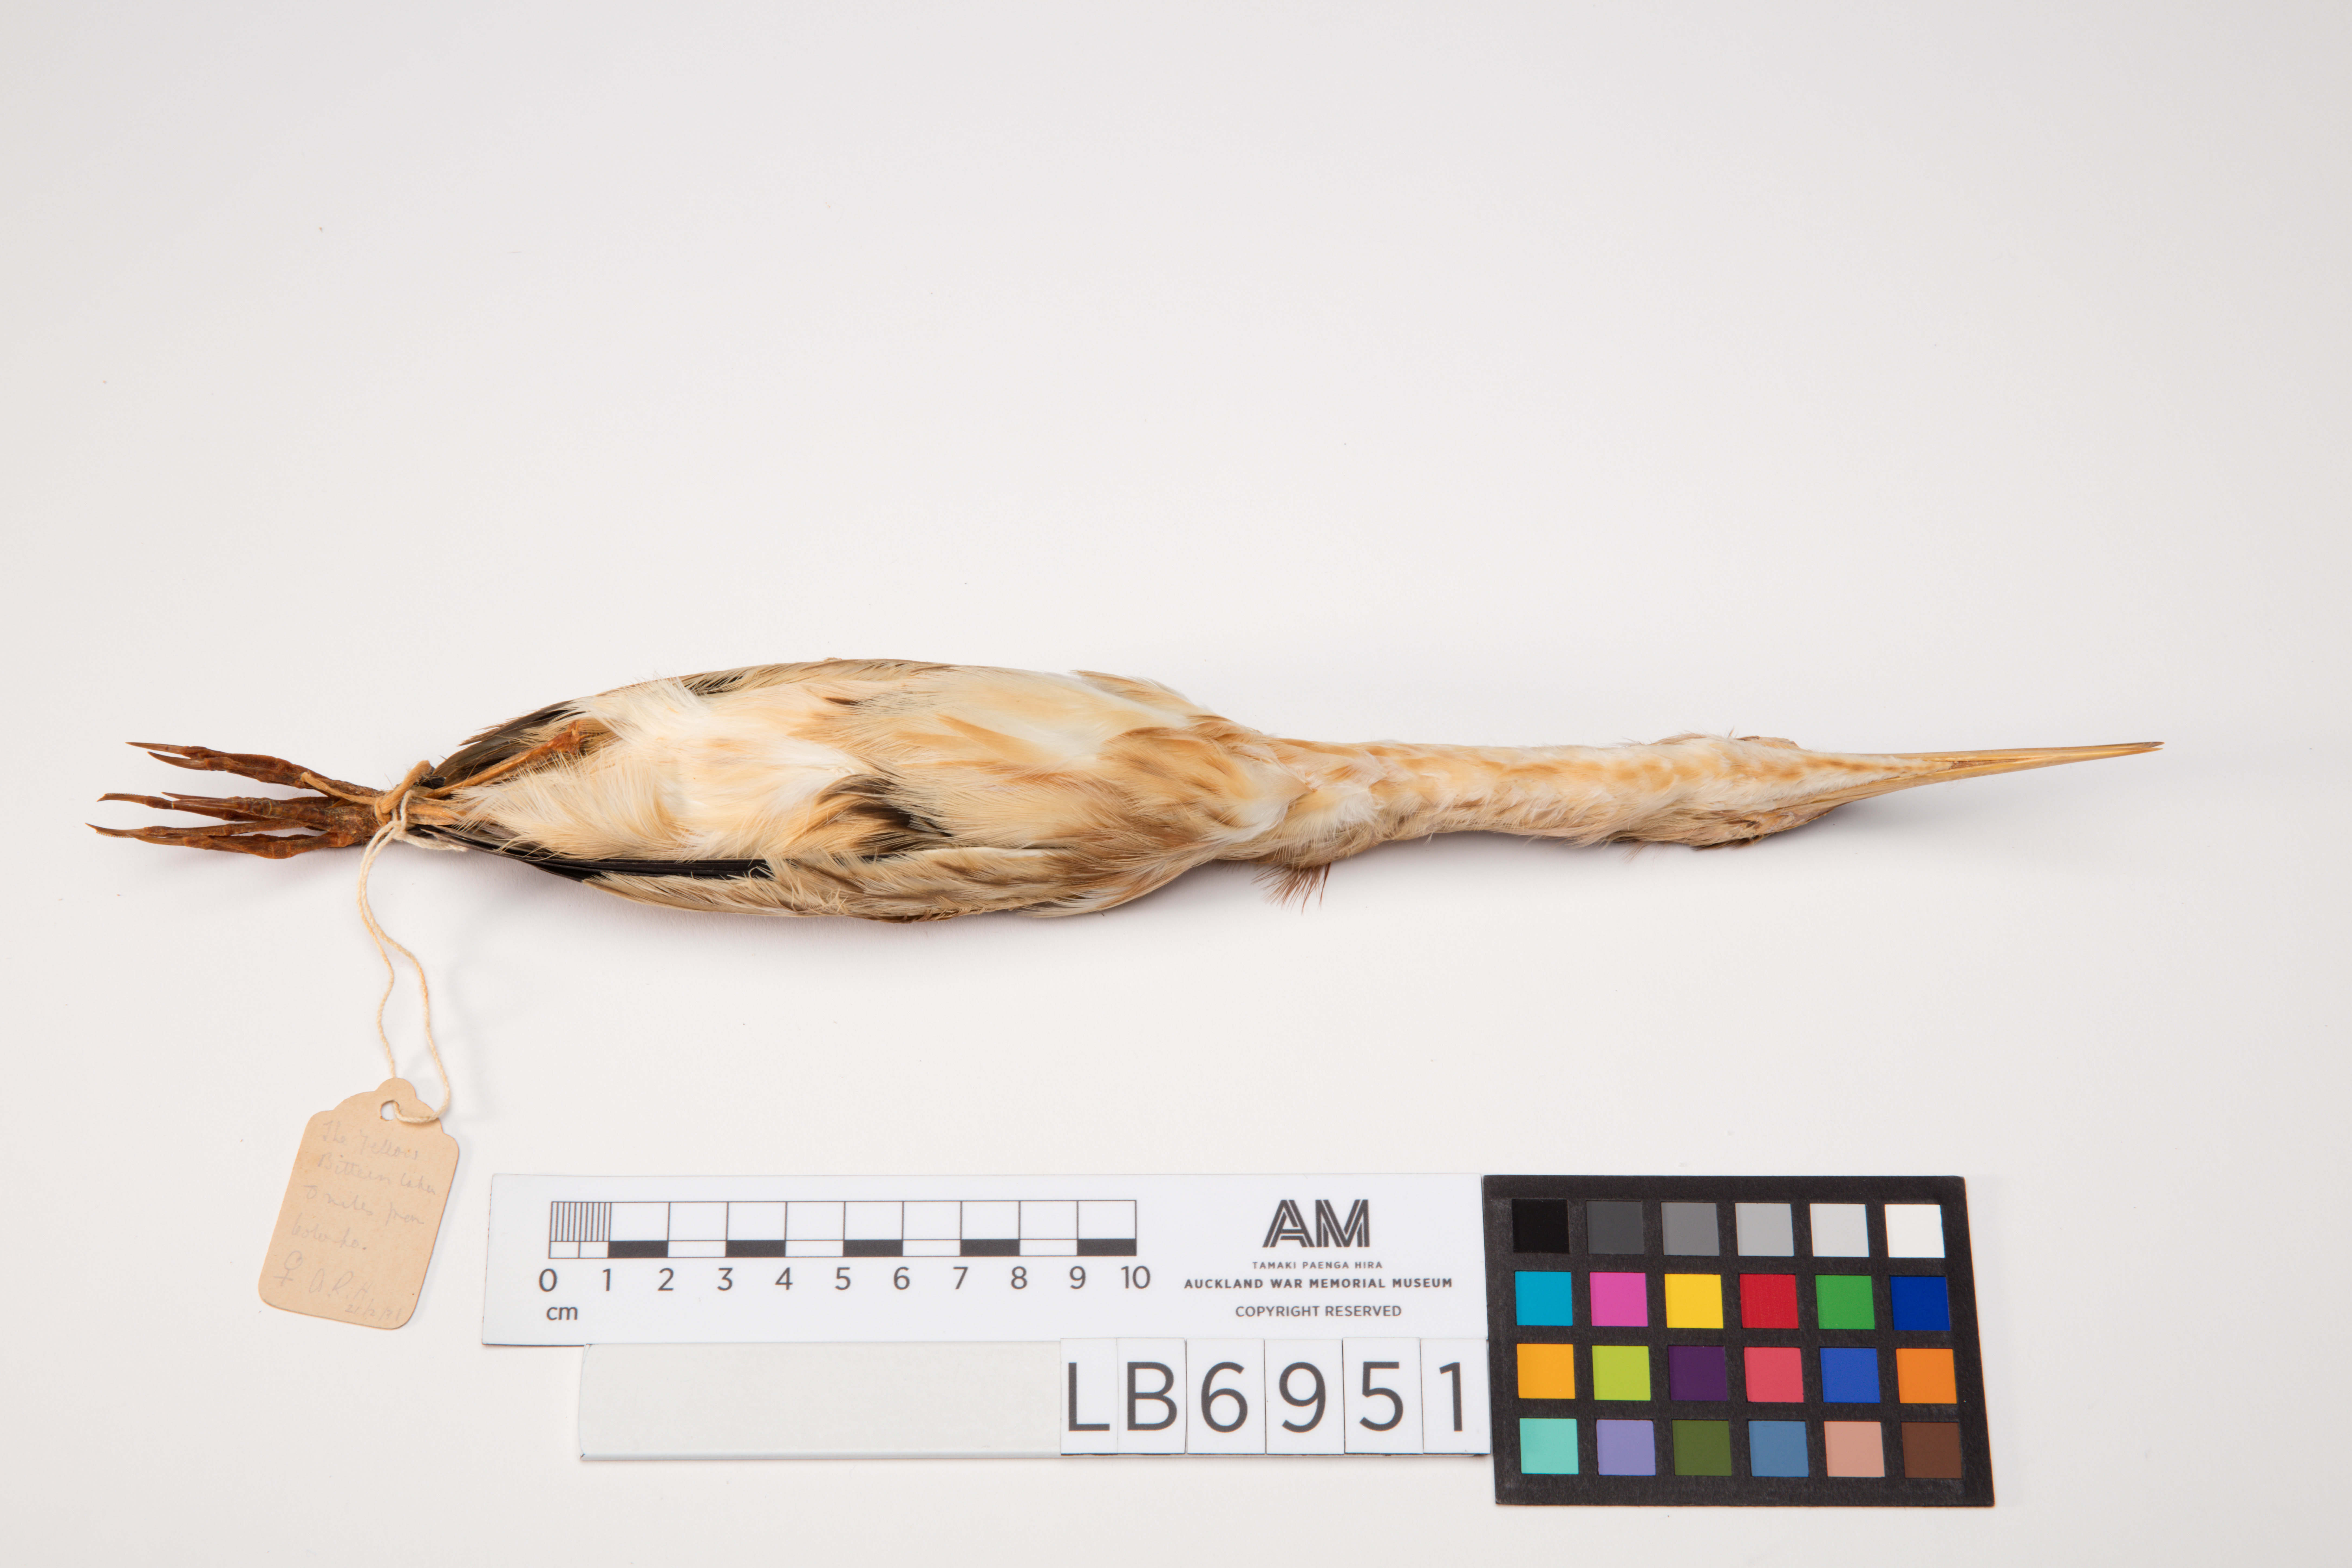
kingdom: Animalia
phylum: Chordata
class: Aves
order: Pelecaniformes
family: Ardeidae
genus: Ixobrychus
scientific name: Ixobrychus sinensis
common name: Yellow bittern
